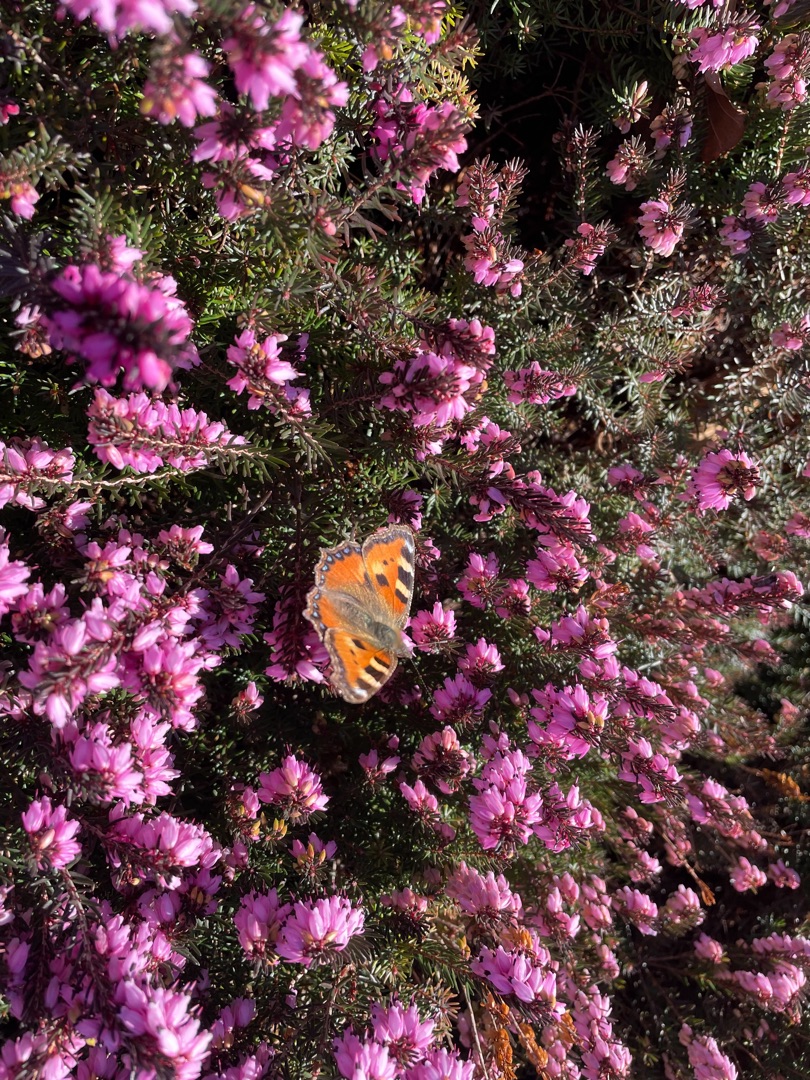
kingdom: Animalia
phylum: Arthropoda
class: Insecta
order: Lepidoptera
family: Nymphalidae
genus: Aglais
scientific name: Aglais urticae
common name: Nældens takvinge
